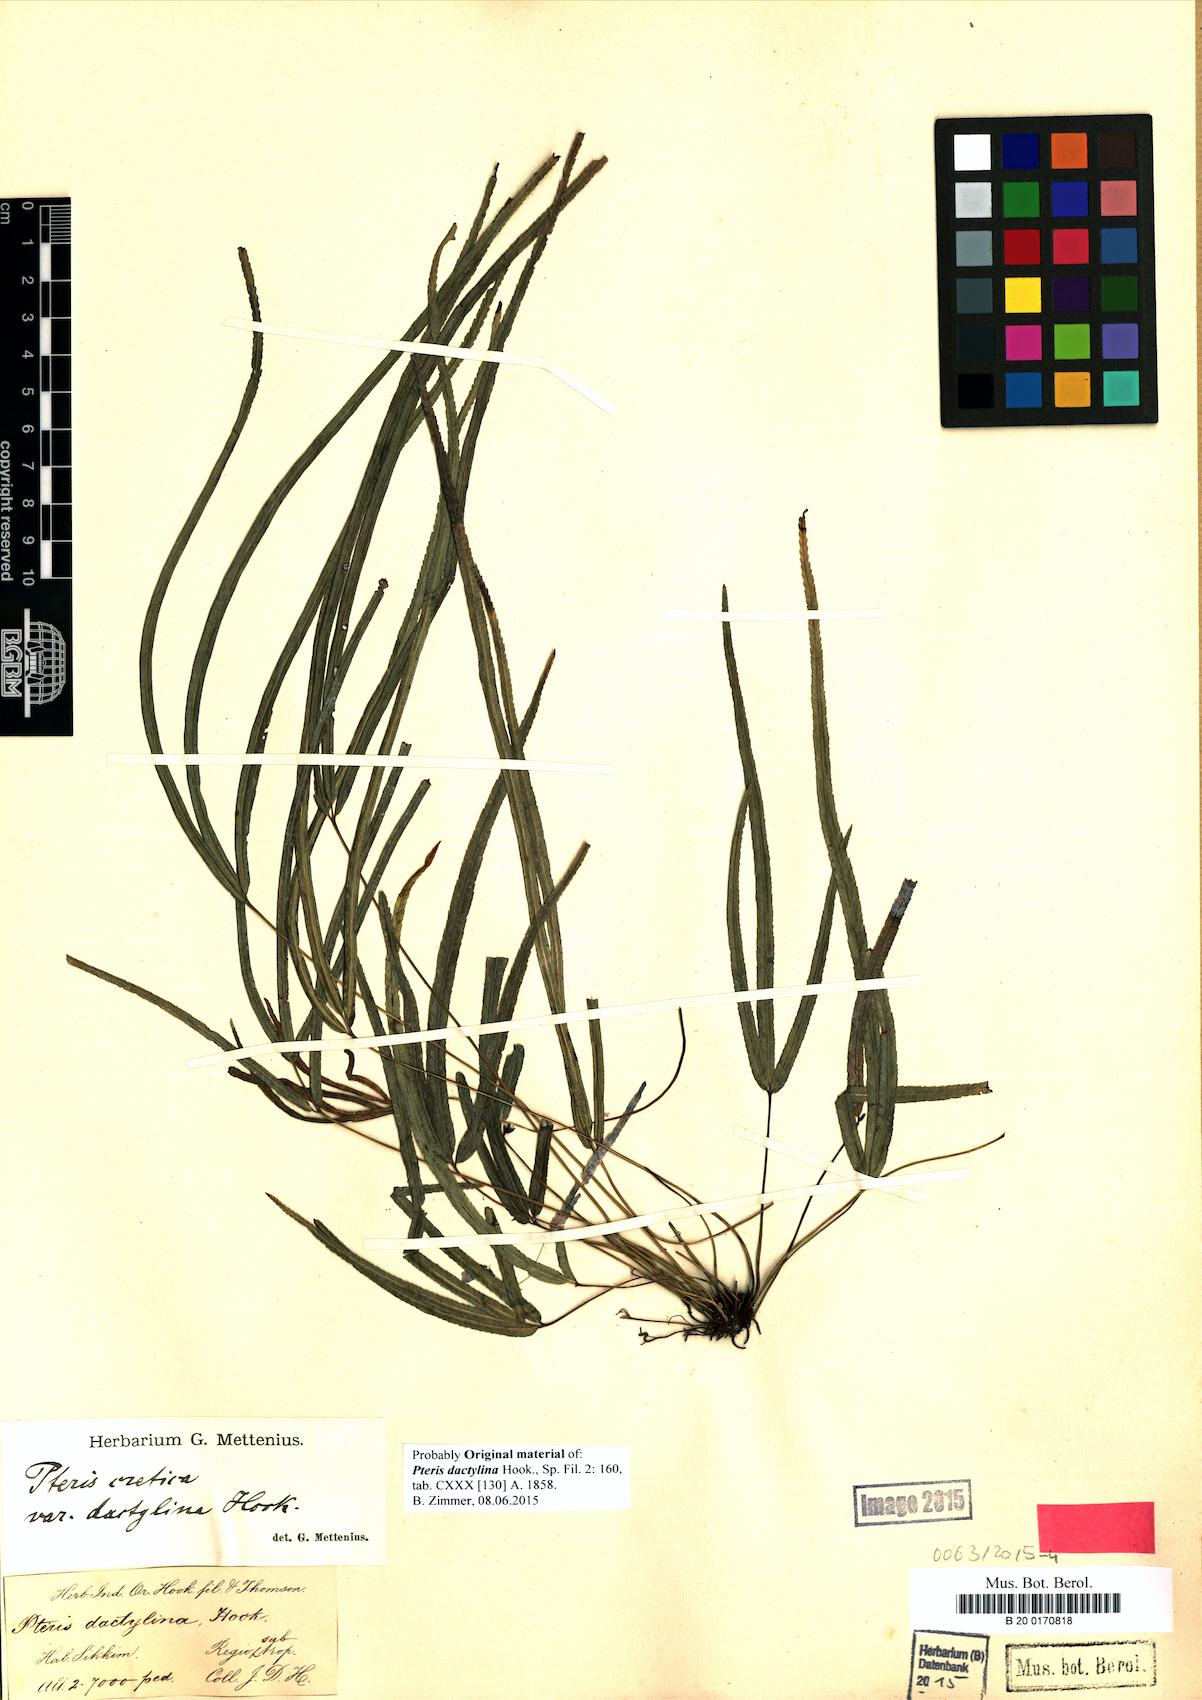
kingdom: Plantae
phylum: Tracheophyta
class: Polypodiopsida
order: Polypodiales
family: Pteridaceae
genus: Pteris
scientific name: Pteris dactylina
